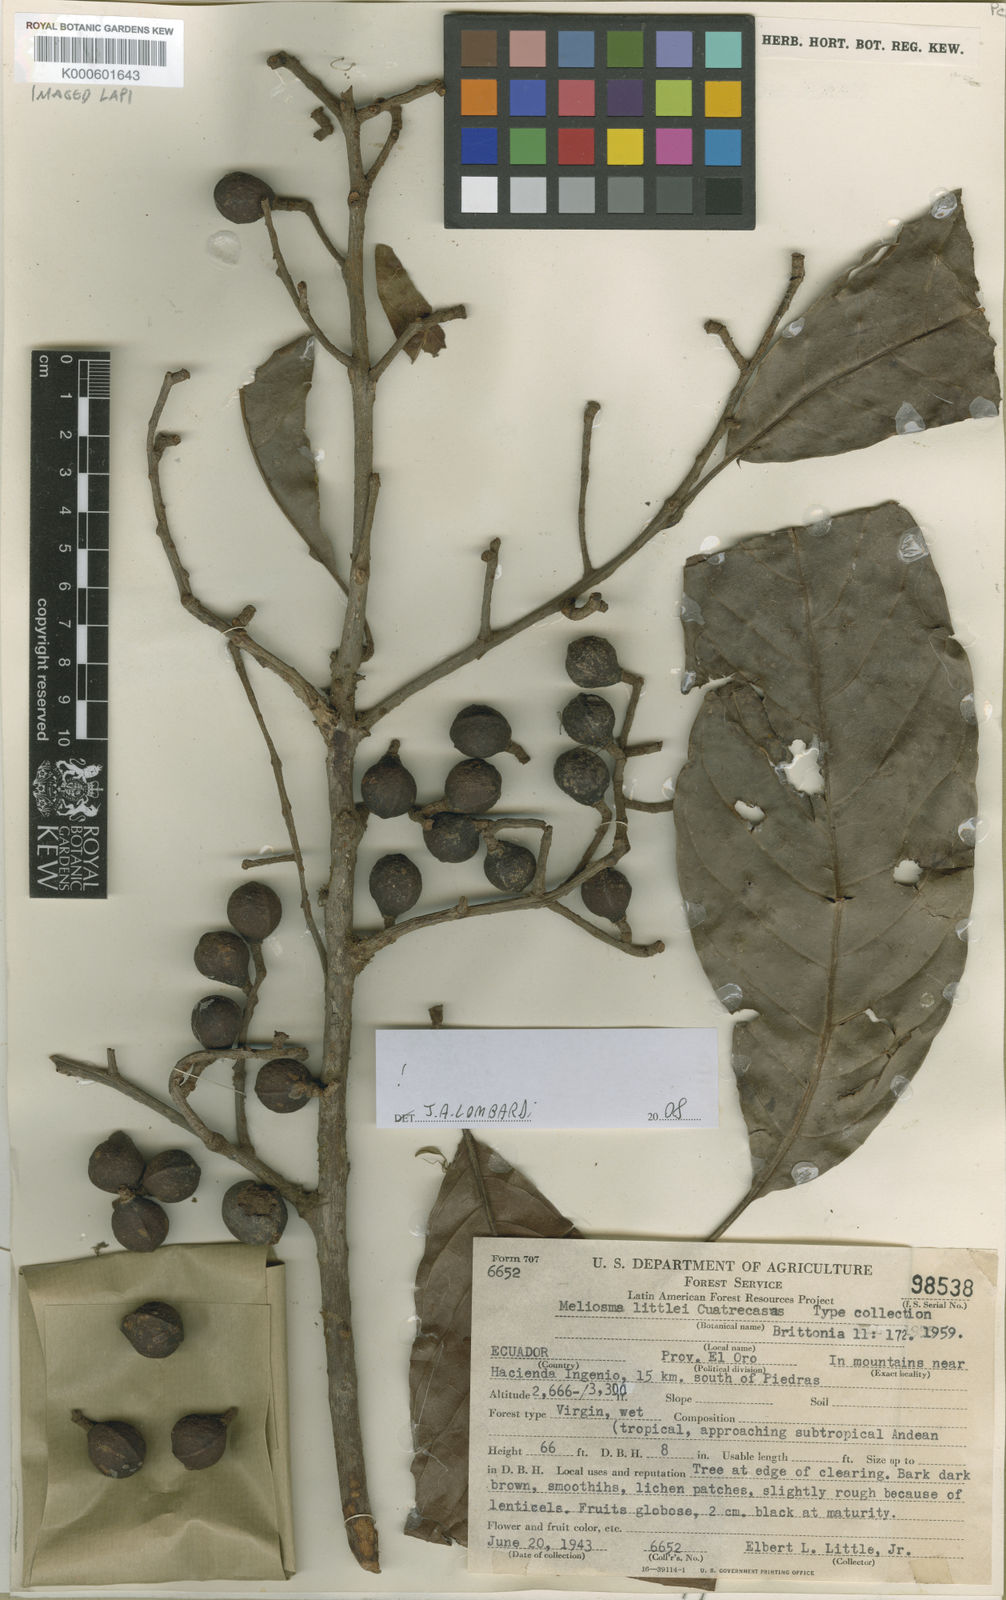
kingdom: Plantae
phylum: Tracheophyta
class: Magnoliopsida
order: Proteales
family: Sabiaceae
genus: Meliosma
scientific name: Meliosma littlei
